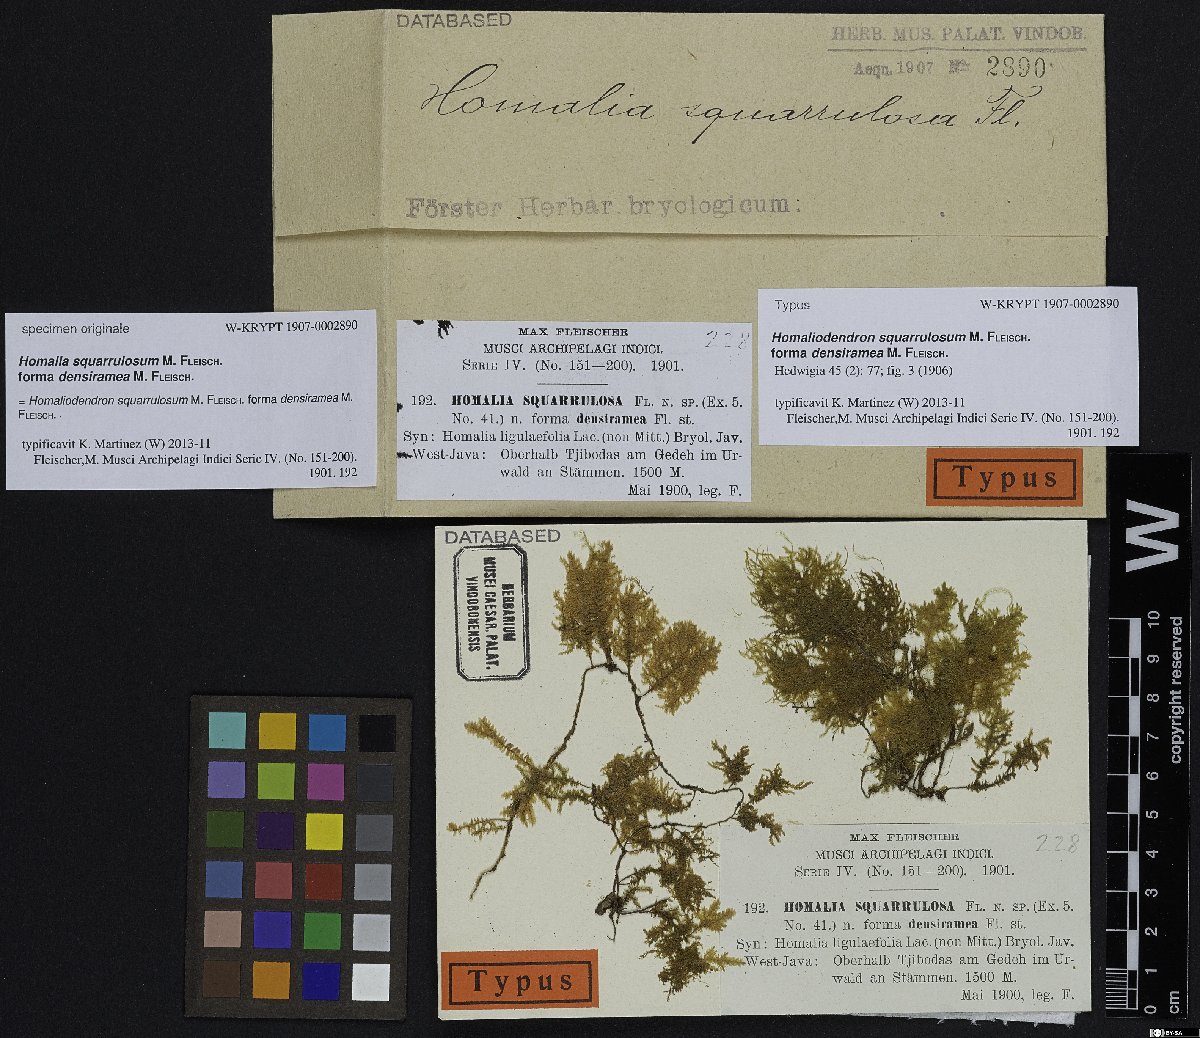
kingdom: Plantae
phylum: Bryophyta
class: Bryopsida
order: Hypnales
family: Neckeraceae
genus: Homaliodendron
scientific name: Homaliodendron flabellatum
